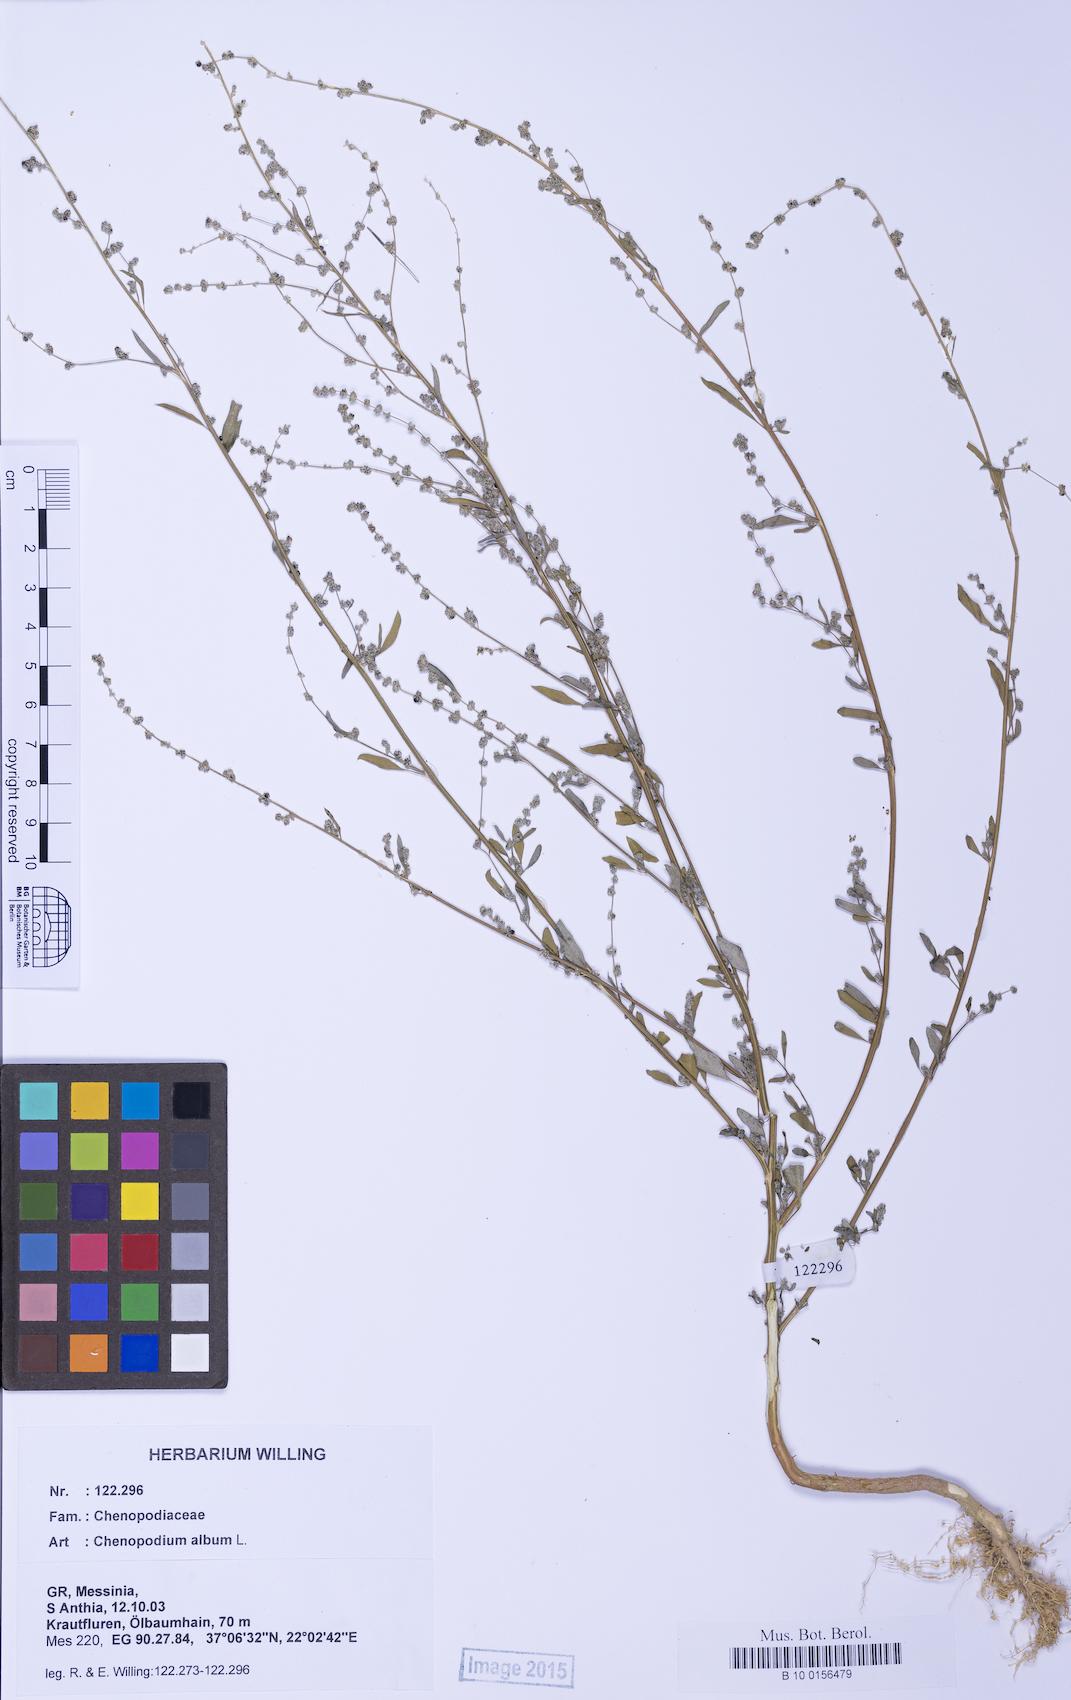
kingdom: Plantae
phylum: Tracheophyta
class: Magnoliopsida
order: Caryophyllales
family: Amaranthaceae
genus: Chenopodium
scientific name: Chenopodium album
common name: Fat-hen
